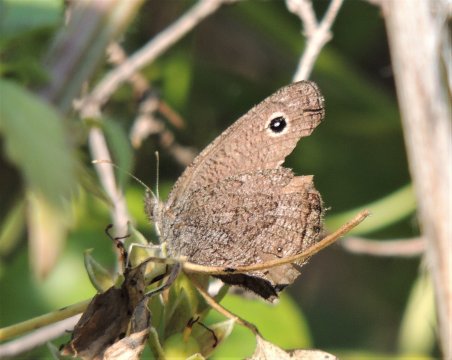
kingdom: Animalia
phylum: Arthropoda
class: Insecta
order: Lepidoptera
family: Nymphalidae
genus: Cercyonis
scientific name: Cercyonis oetus
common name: Small Wood-Nymph
